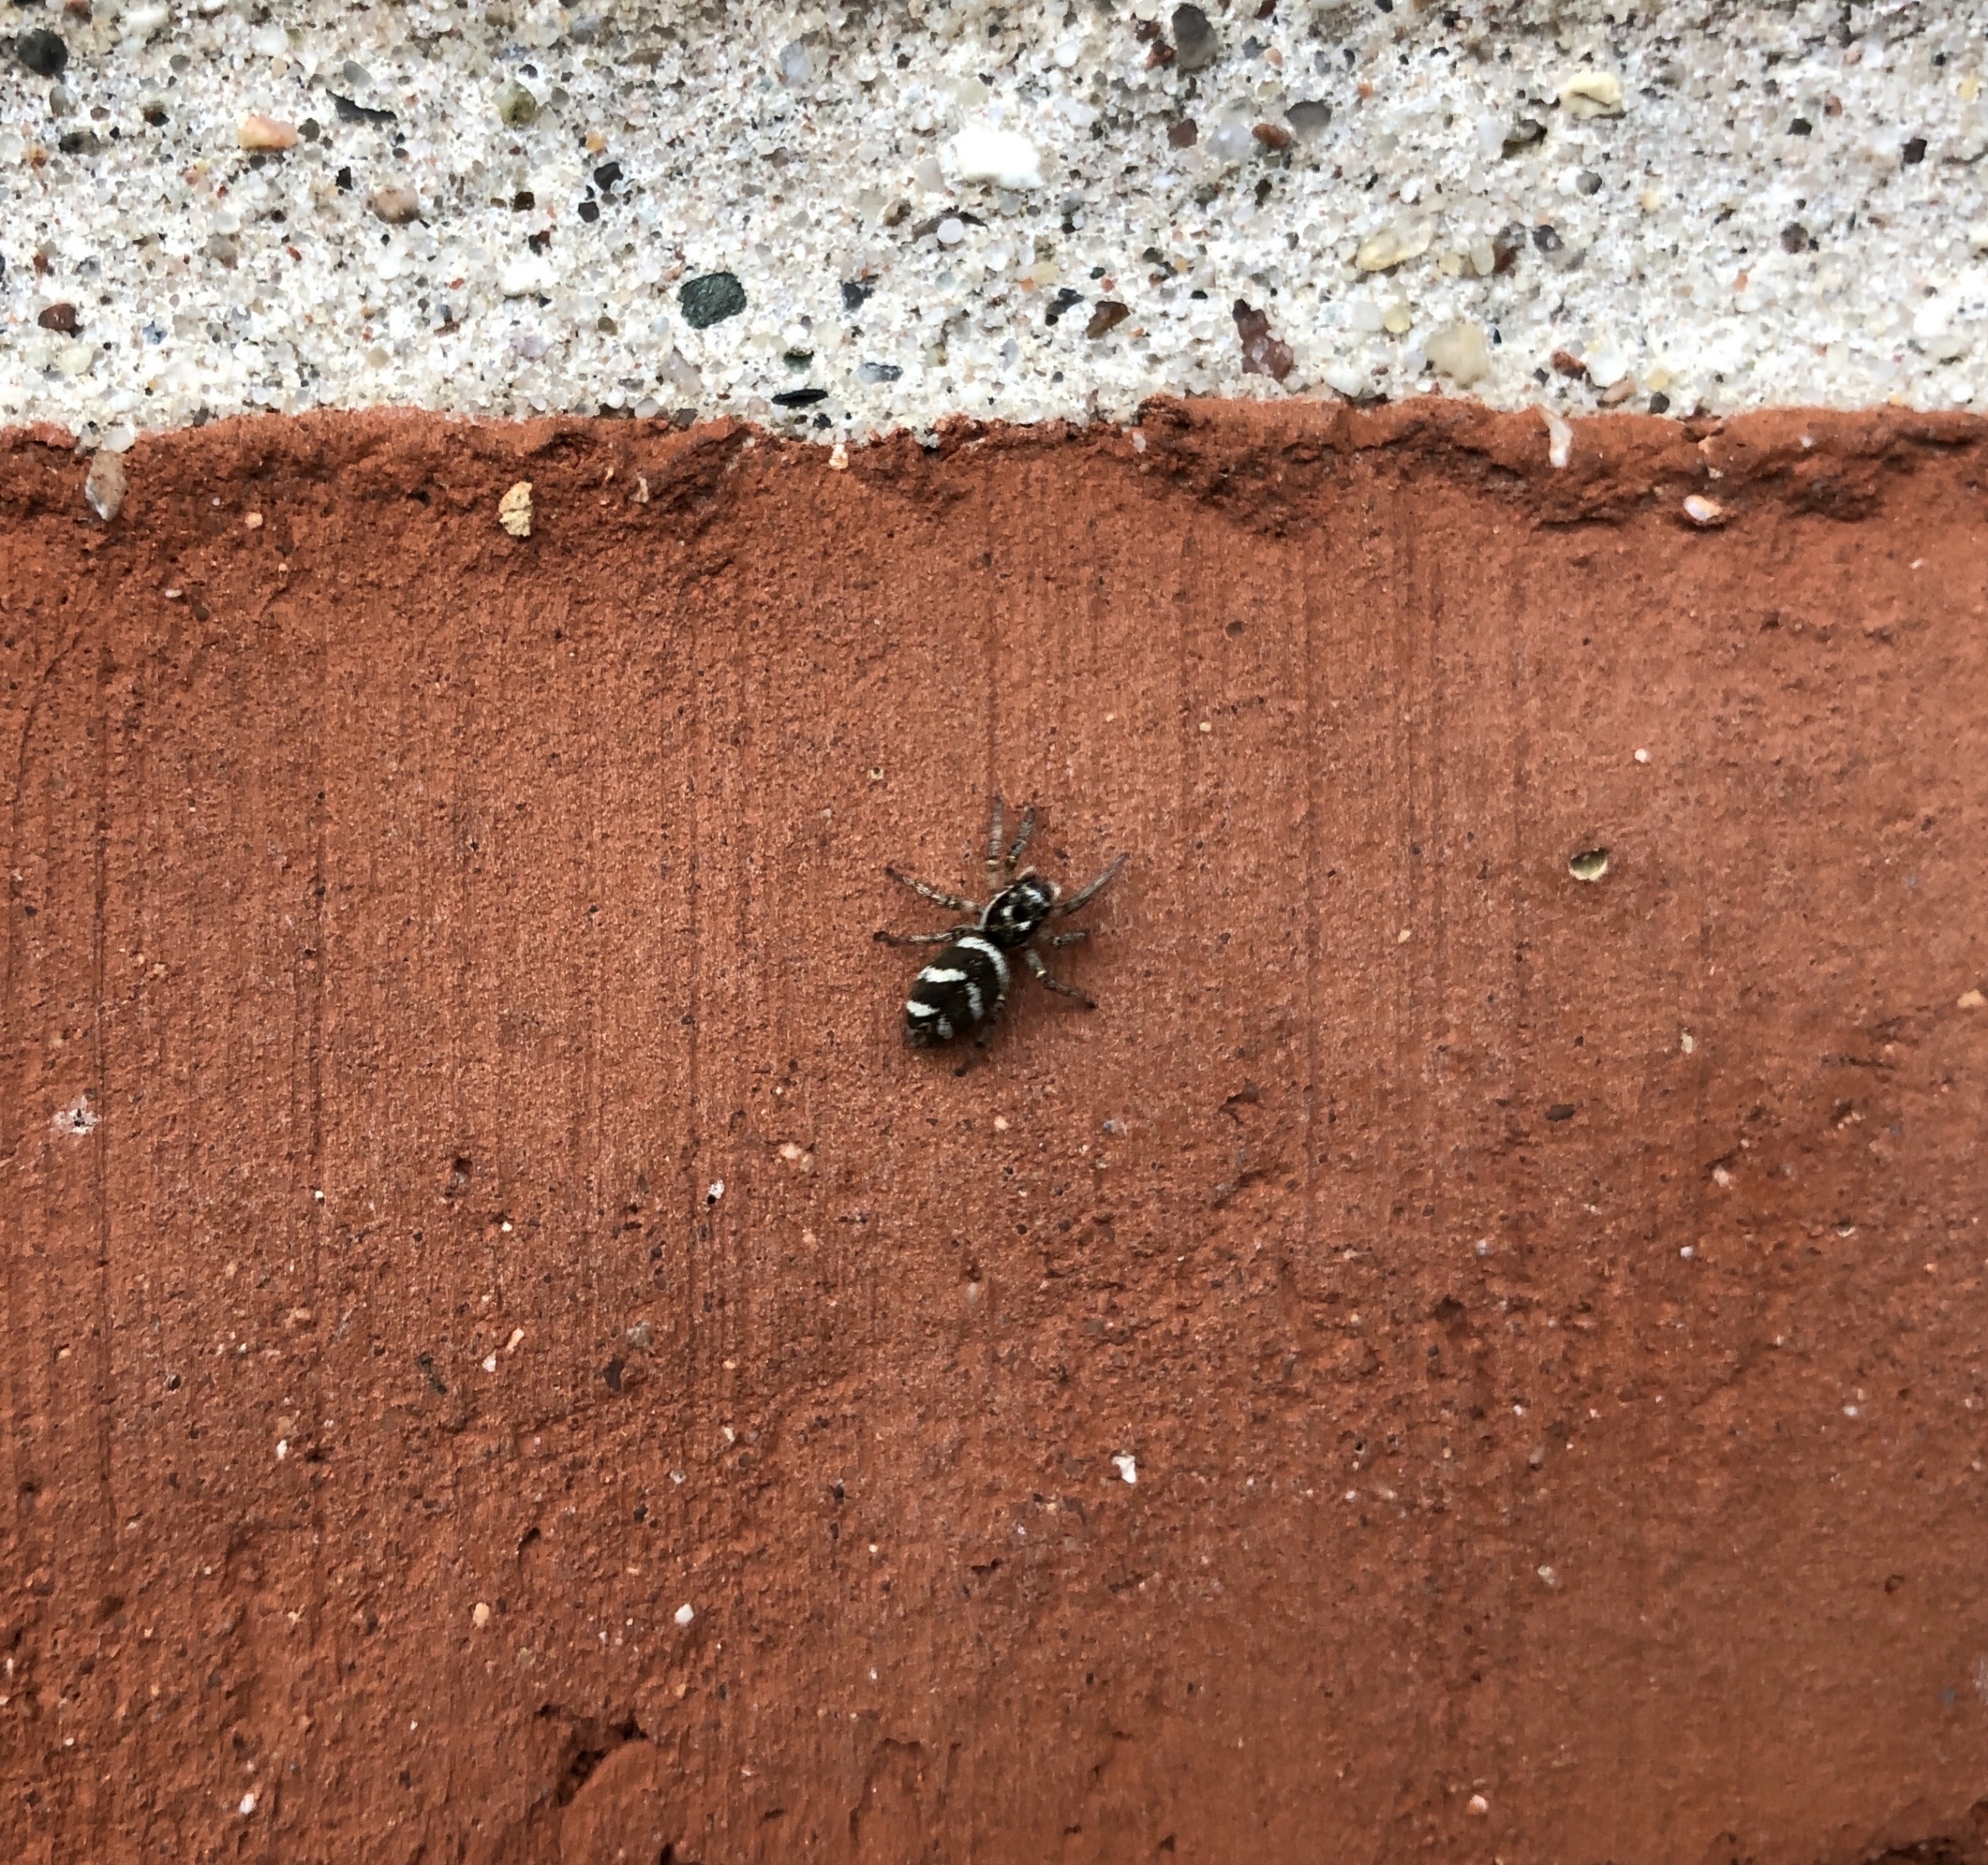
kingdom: Animalia
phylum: Arthropoda
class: Arachnida
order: Araneae
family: Salticidae
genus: Salticus
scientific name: Salticus scenicus
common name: Almindelig zebraedderkop
